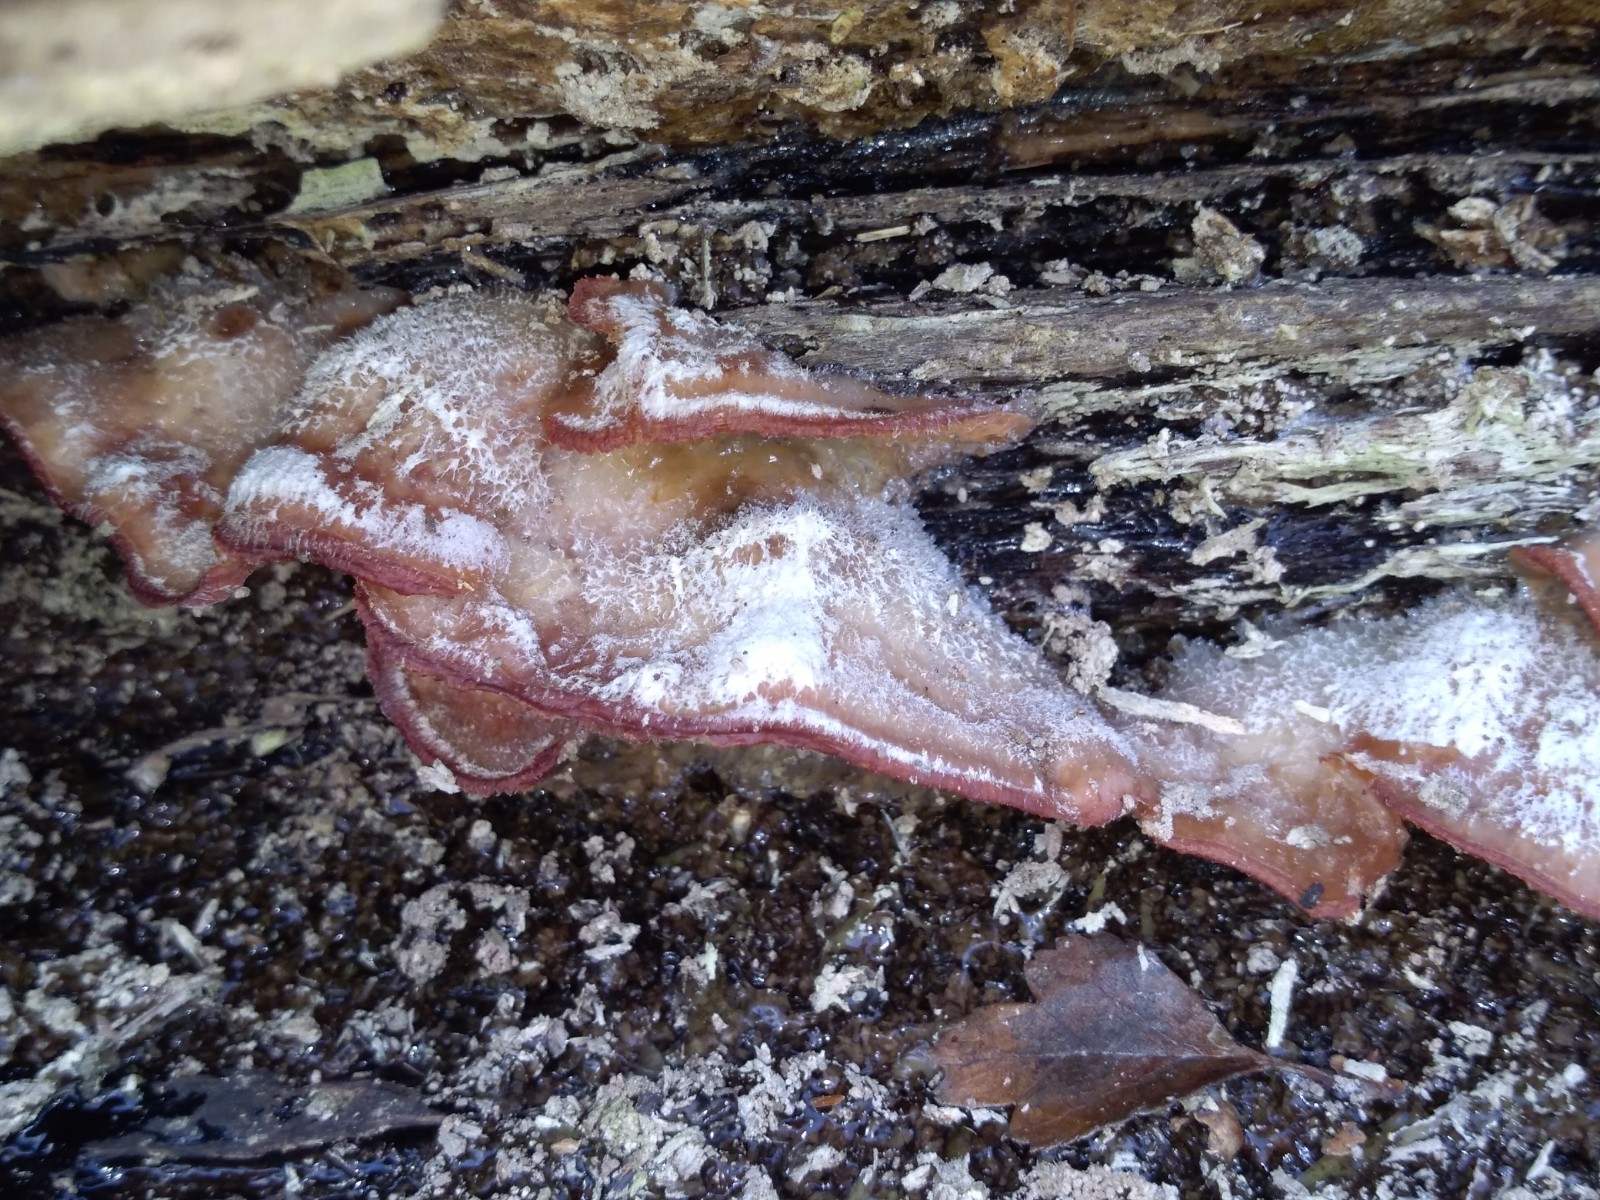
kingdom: Fungi
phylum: Basidiomycota
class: Agaricomycetes
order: Polyporales
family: Meruliaceae
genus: Phlebia
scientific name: Phlebia tremellosa
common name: bævrende åresvamp
